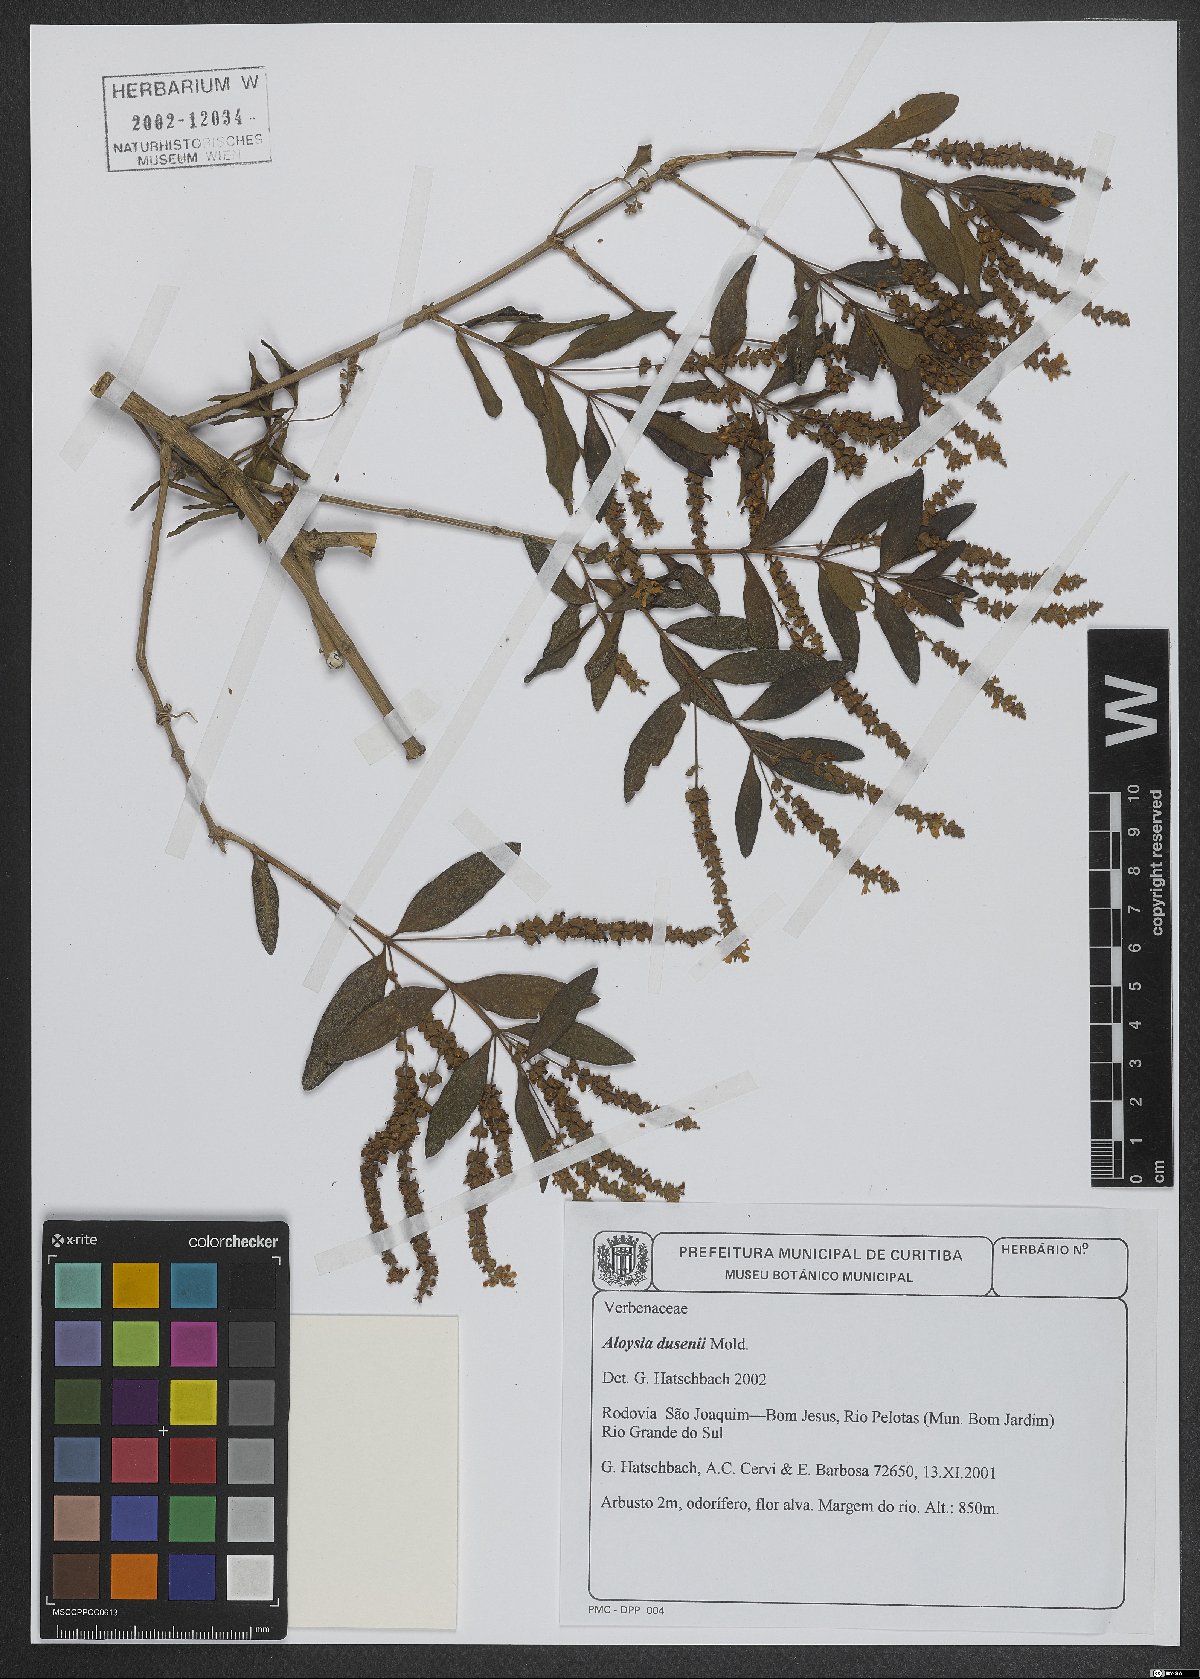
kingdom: Plantae
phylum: Tracheophyta
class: Magnoliopsida
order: Lamiales
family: Verbenaceae
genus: Aloysia
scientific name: Aloysia dusenii
